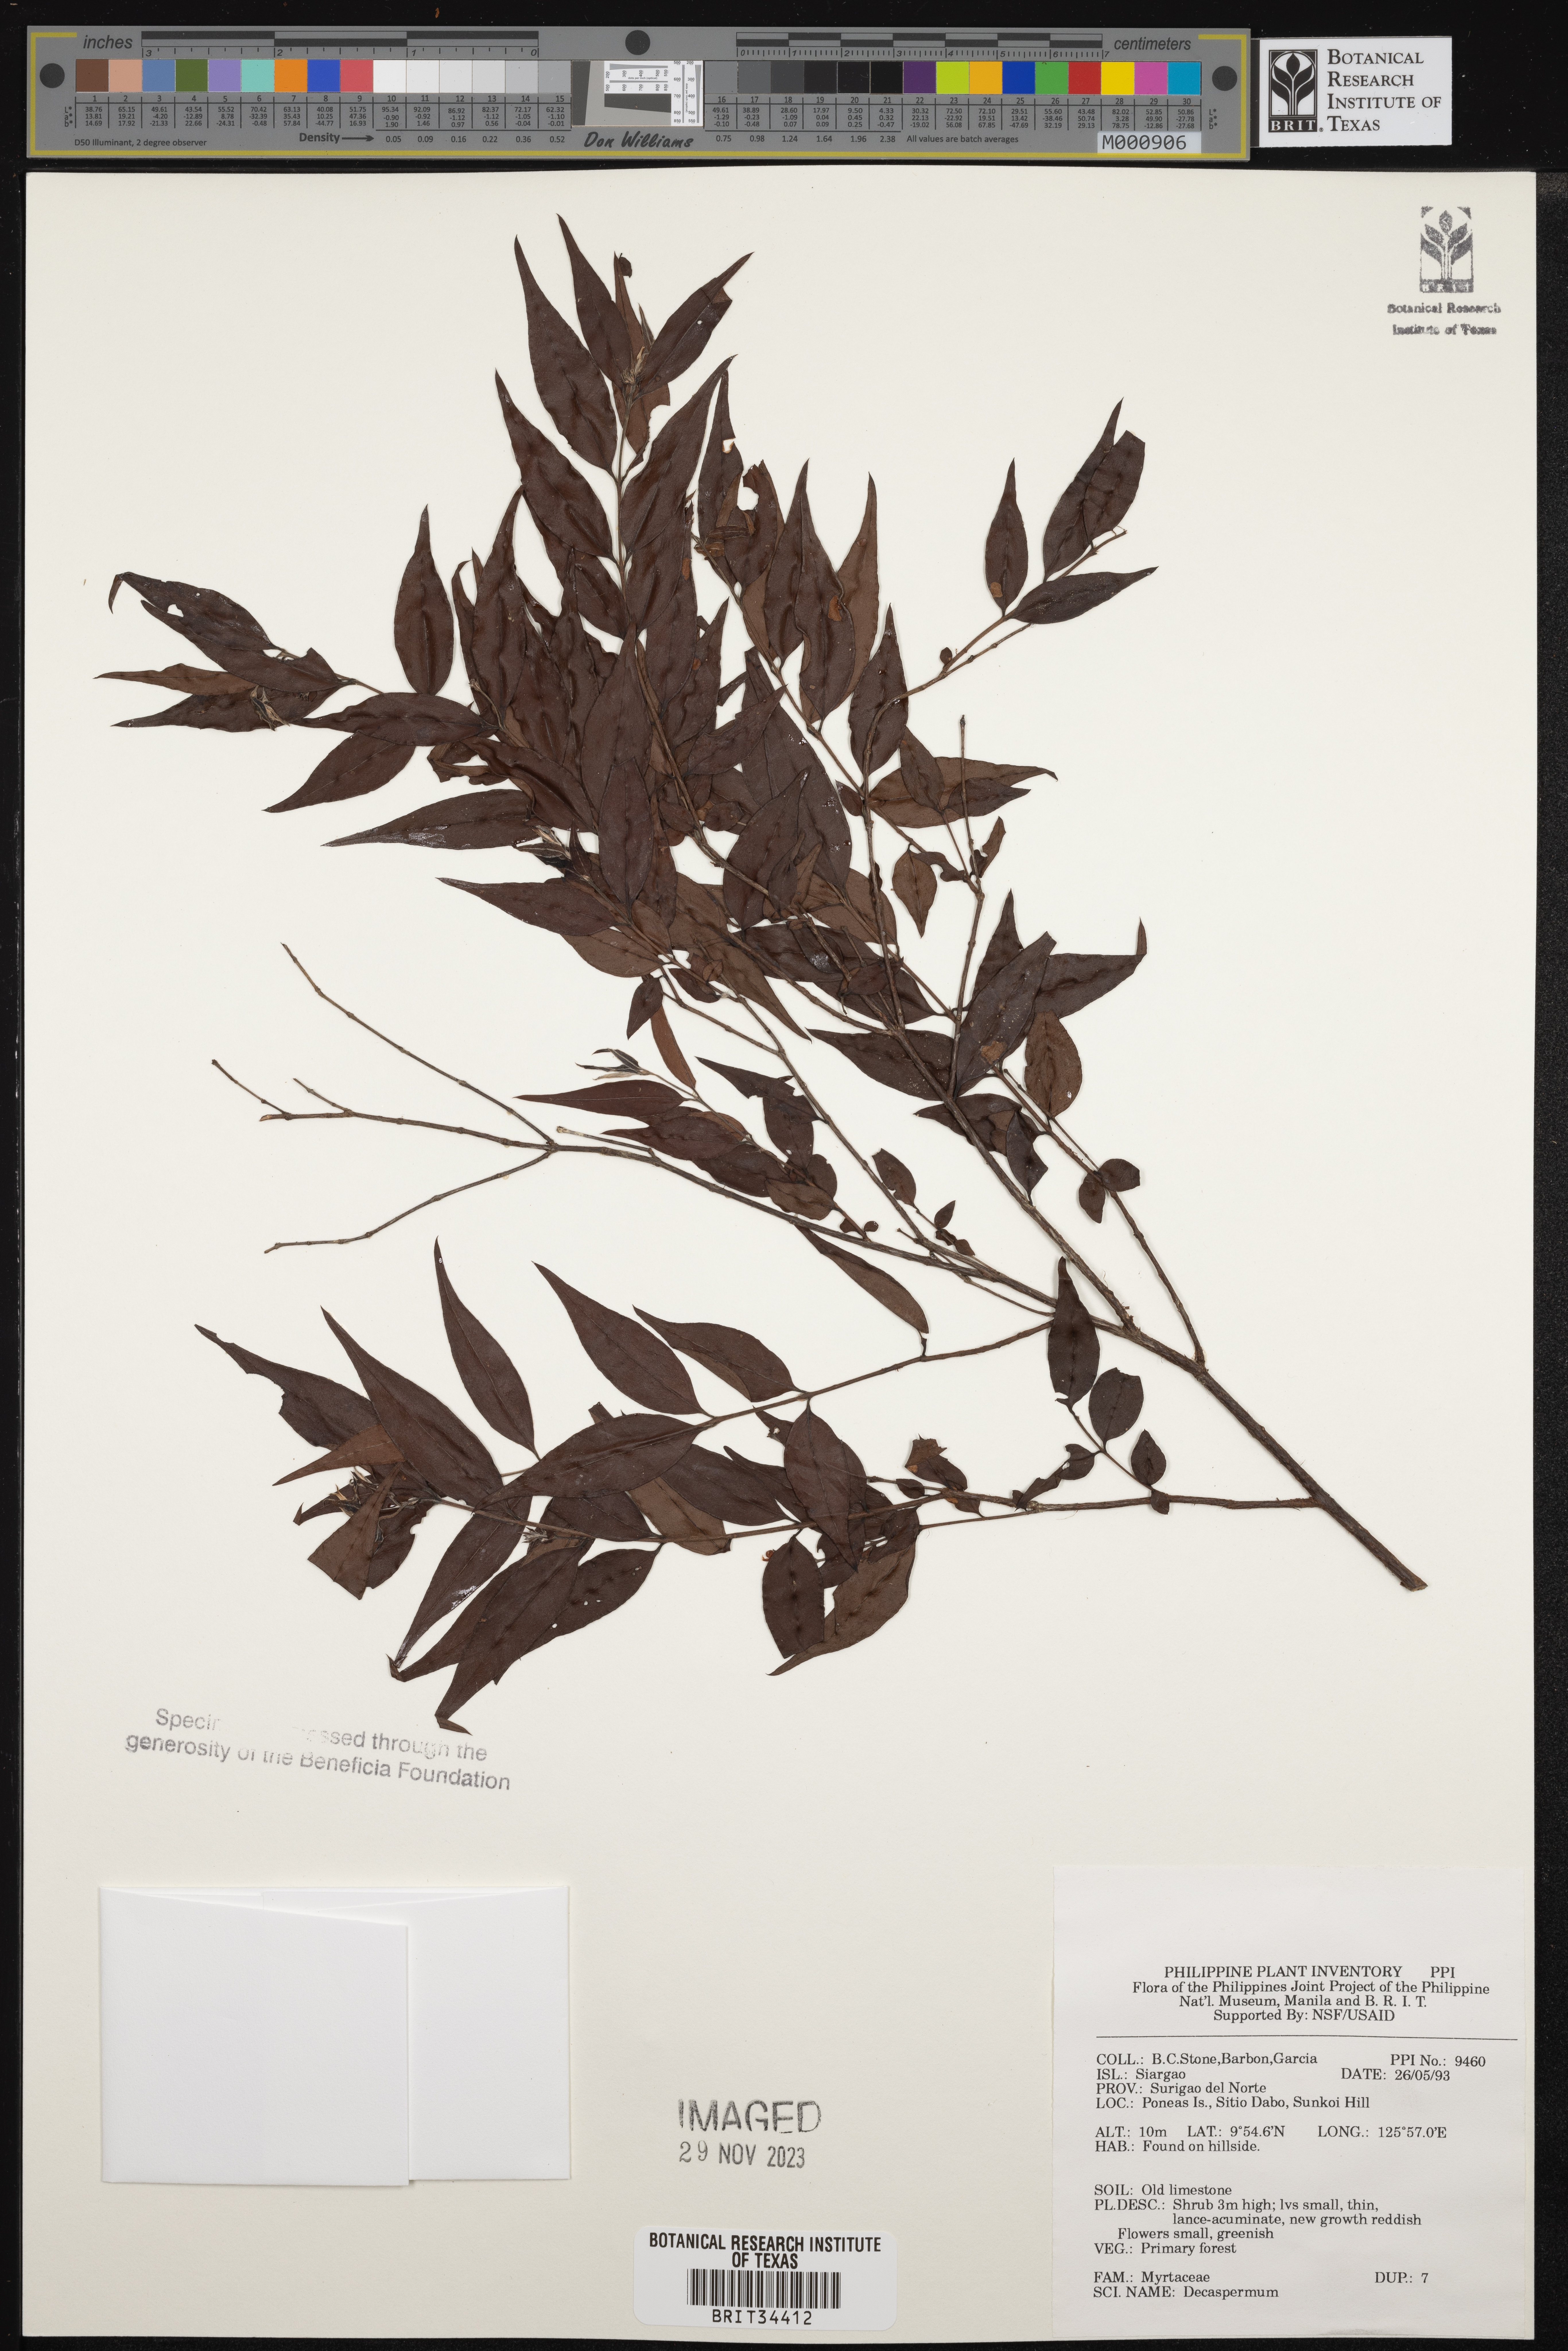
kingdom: Plantae
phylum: Tracheophyta
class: Magnoliopsida
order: Myrtales
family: Myrtaceae
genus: Decaspermum
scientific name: Decaspermum
